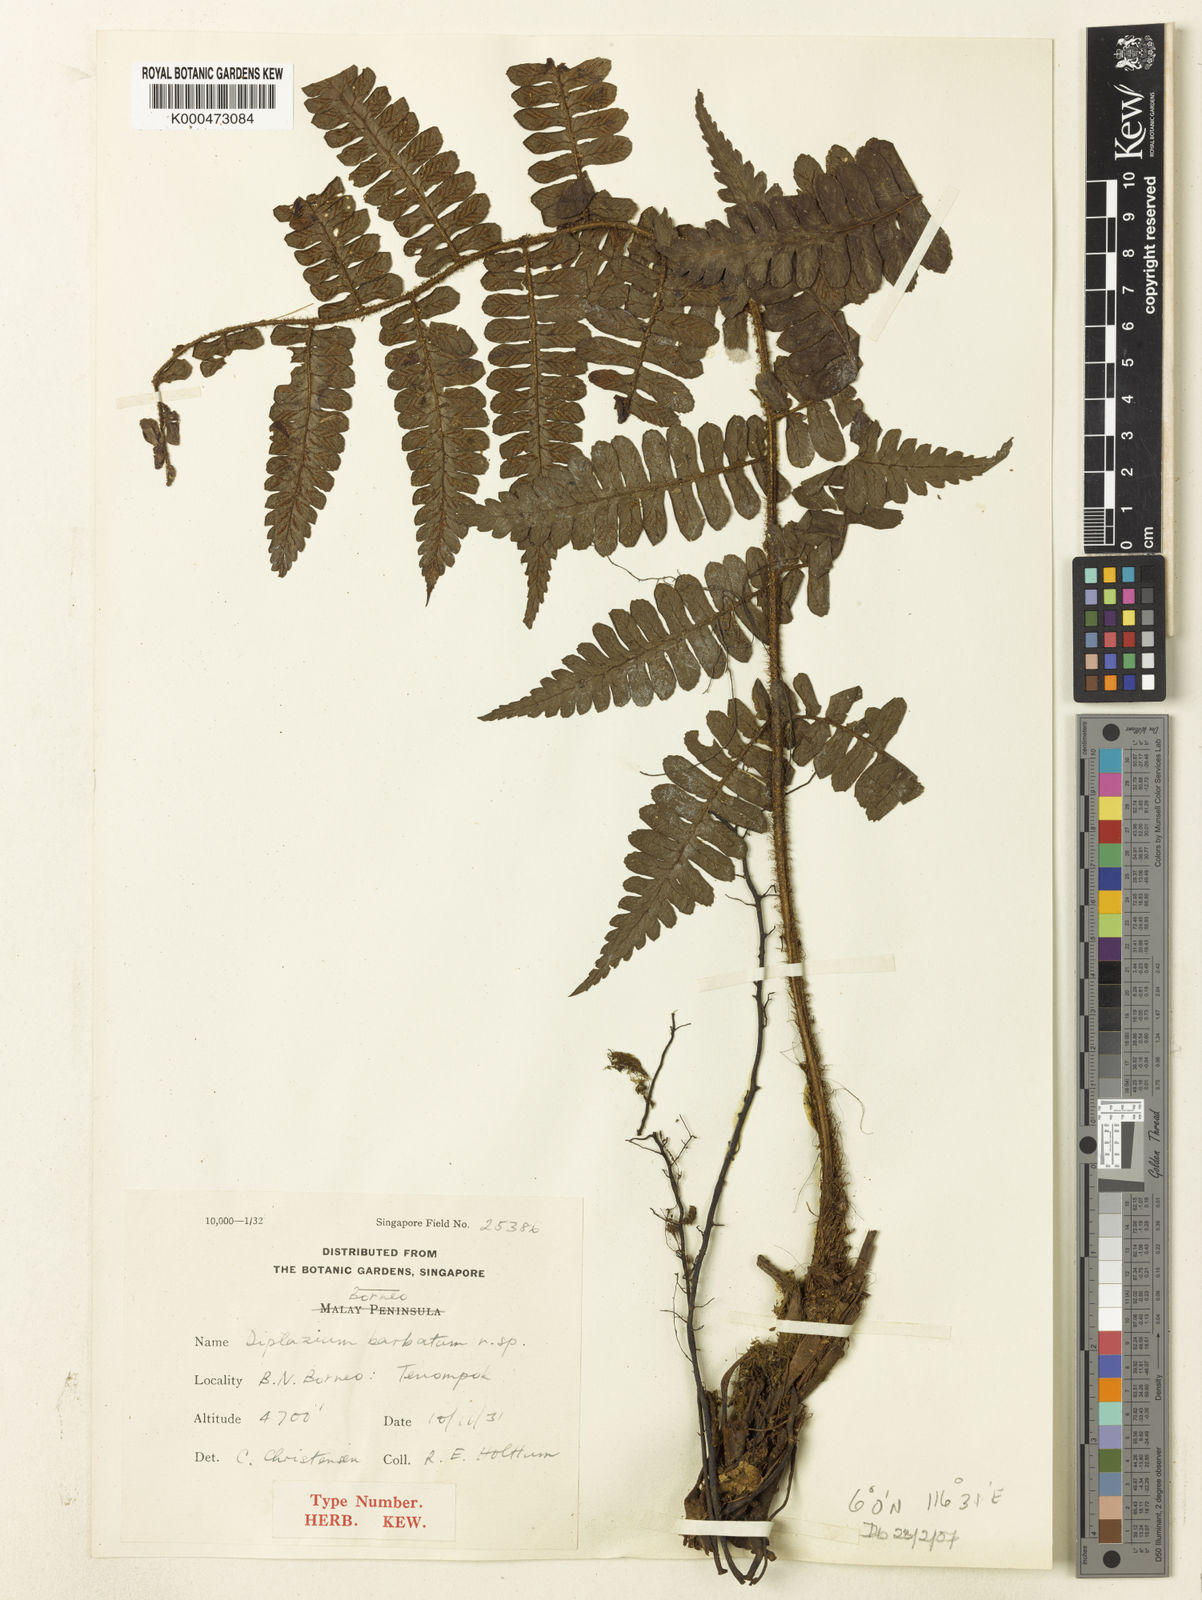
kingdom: Plantae
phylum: Tracheophyta
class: Polypodiopsida
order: Polypodiales
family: Athyriaceae
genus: Diplazium
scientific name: Diplazium barbatum
